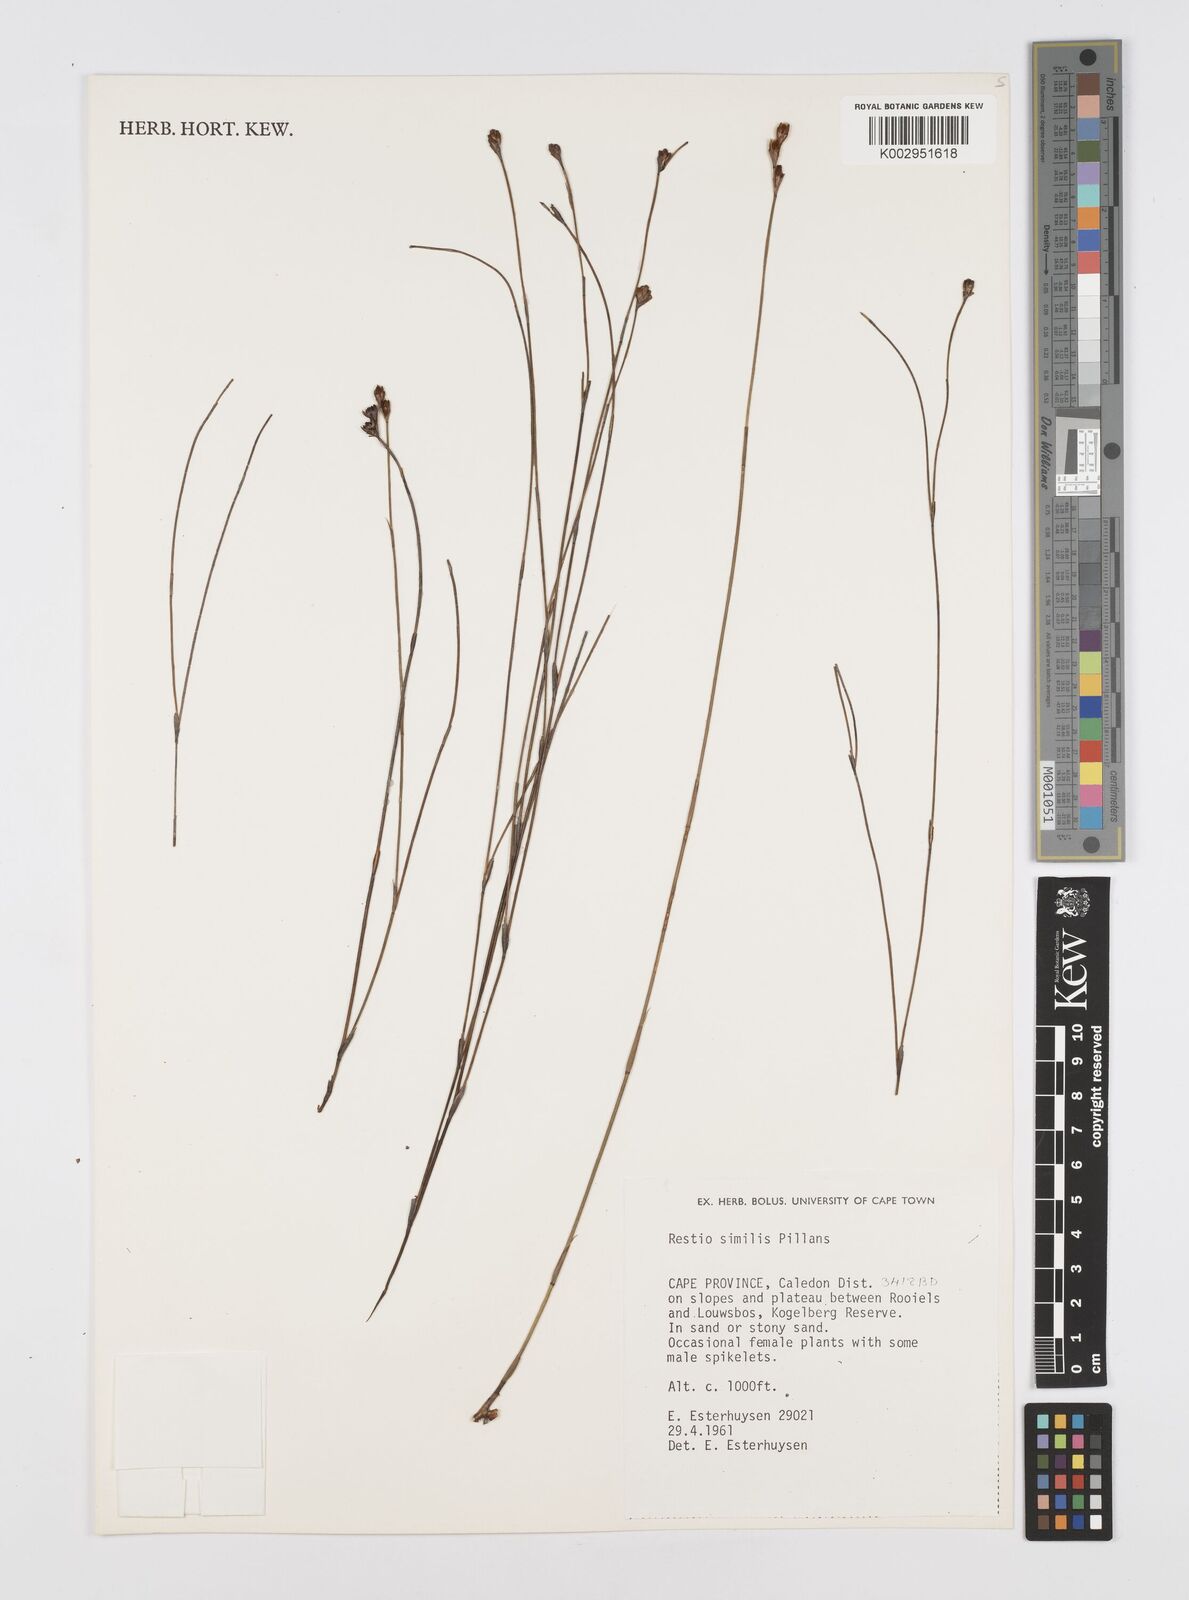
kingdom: Plantae
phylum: Tracheophyta
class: Liliopsida
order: Poales
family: Restionaceae
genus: Restio
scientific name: Restio similis
